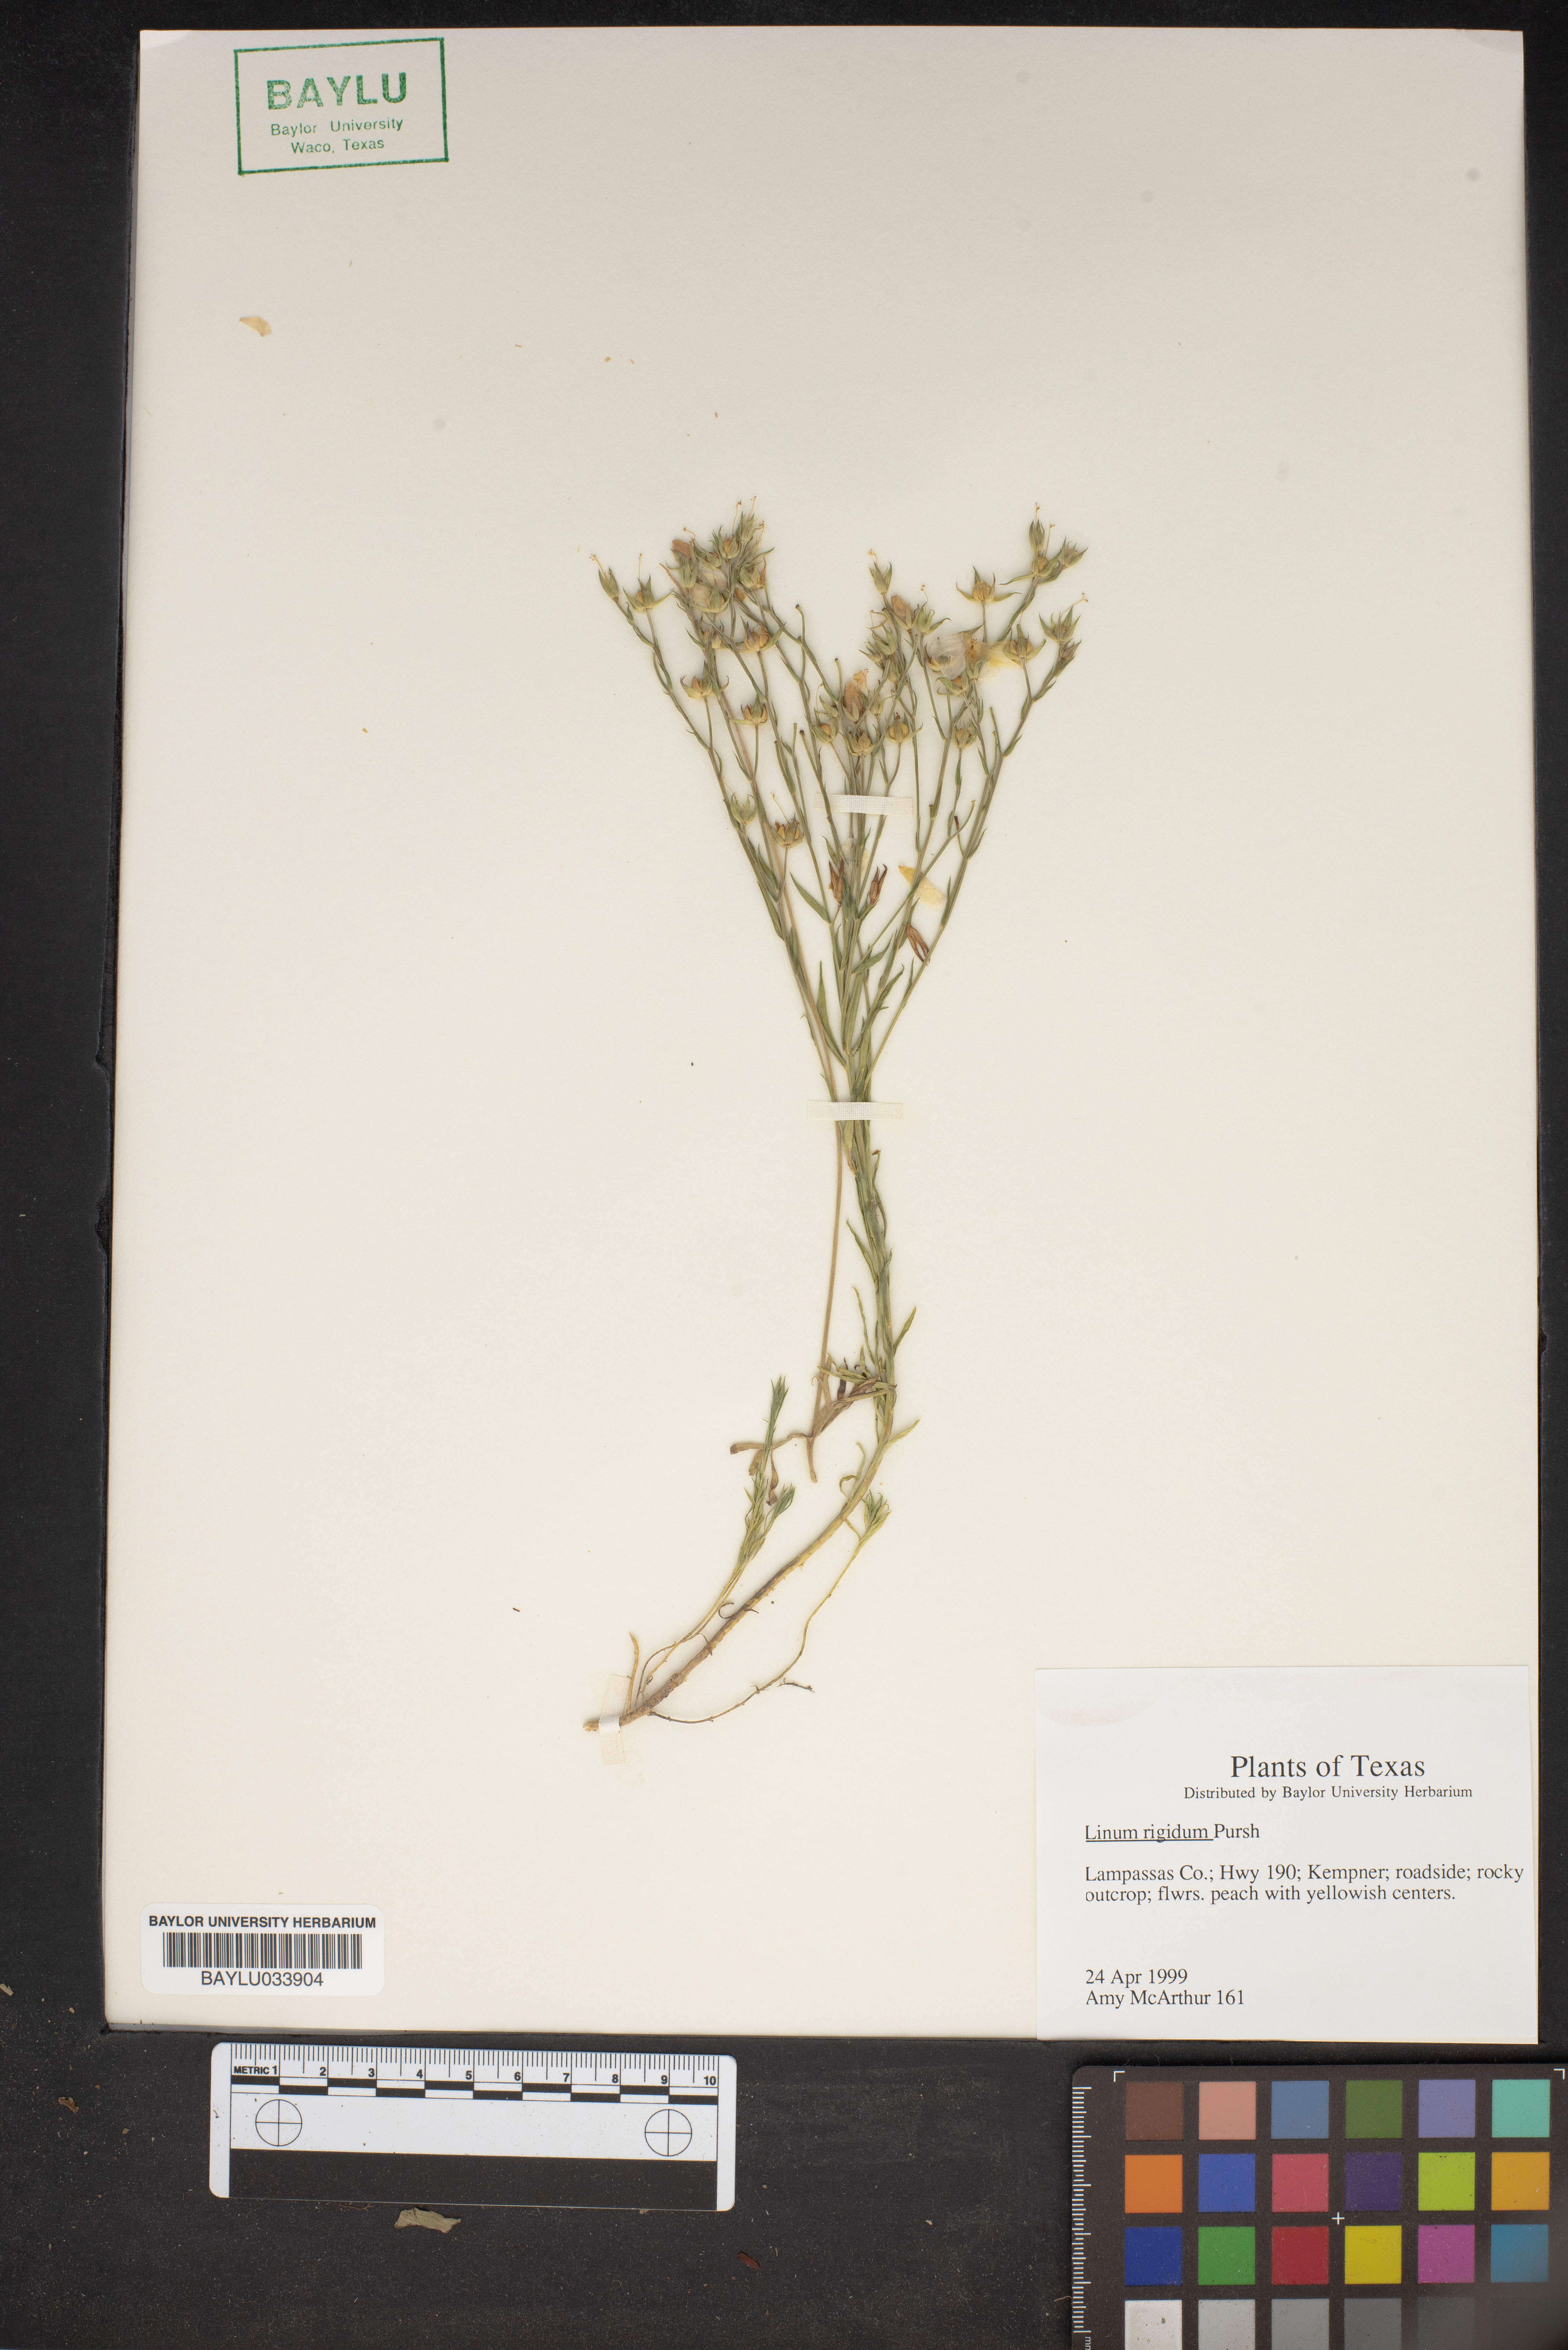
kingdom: Plantae
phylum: Tracheophyta
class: Magnoliopsida
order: Malpighiales
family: Linaceae
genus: Linum
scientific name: Linum rigidum
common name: Stiff-stem flax
